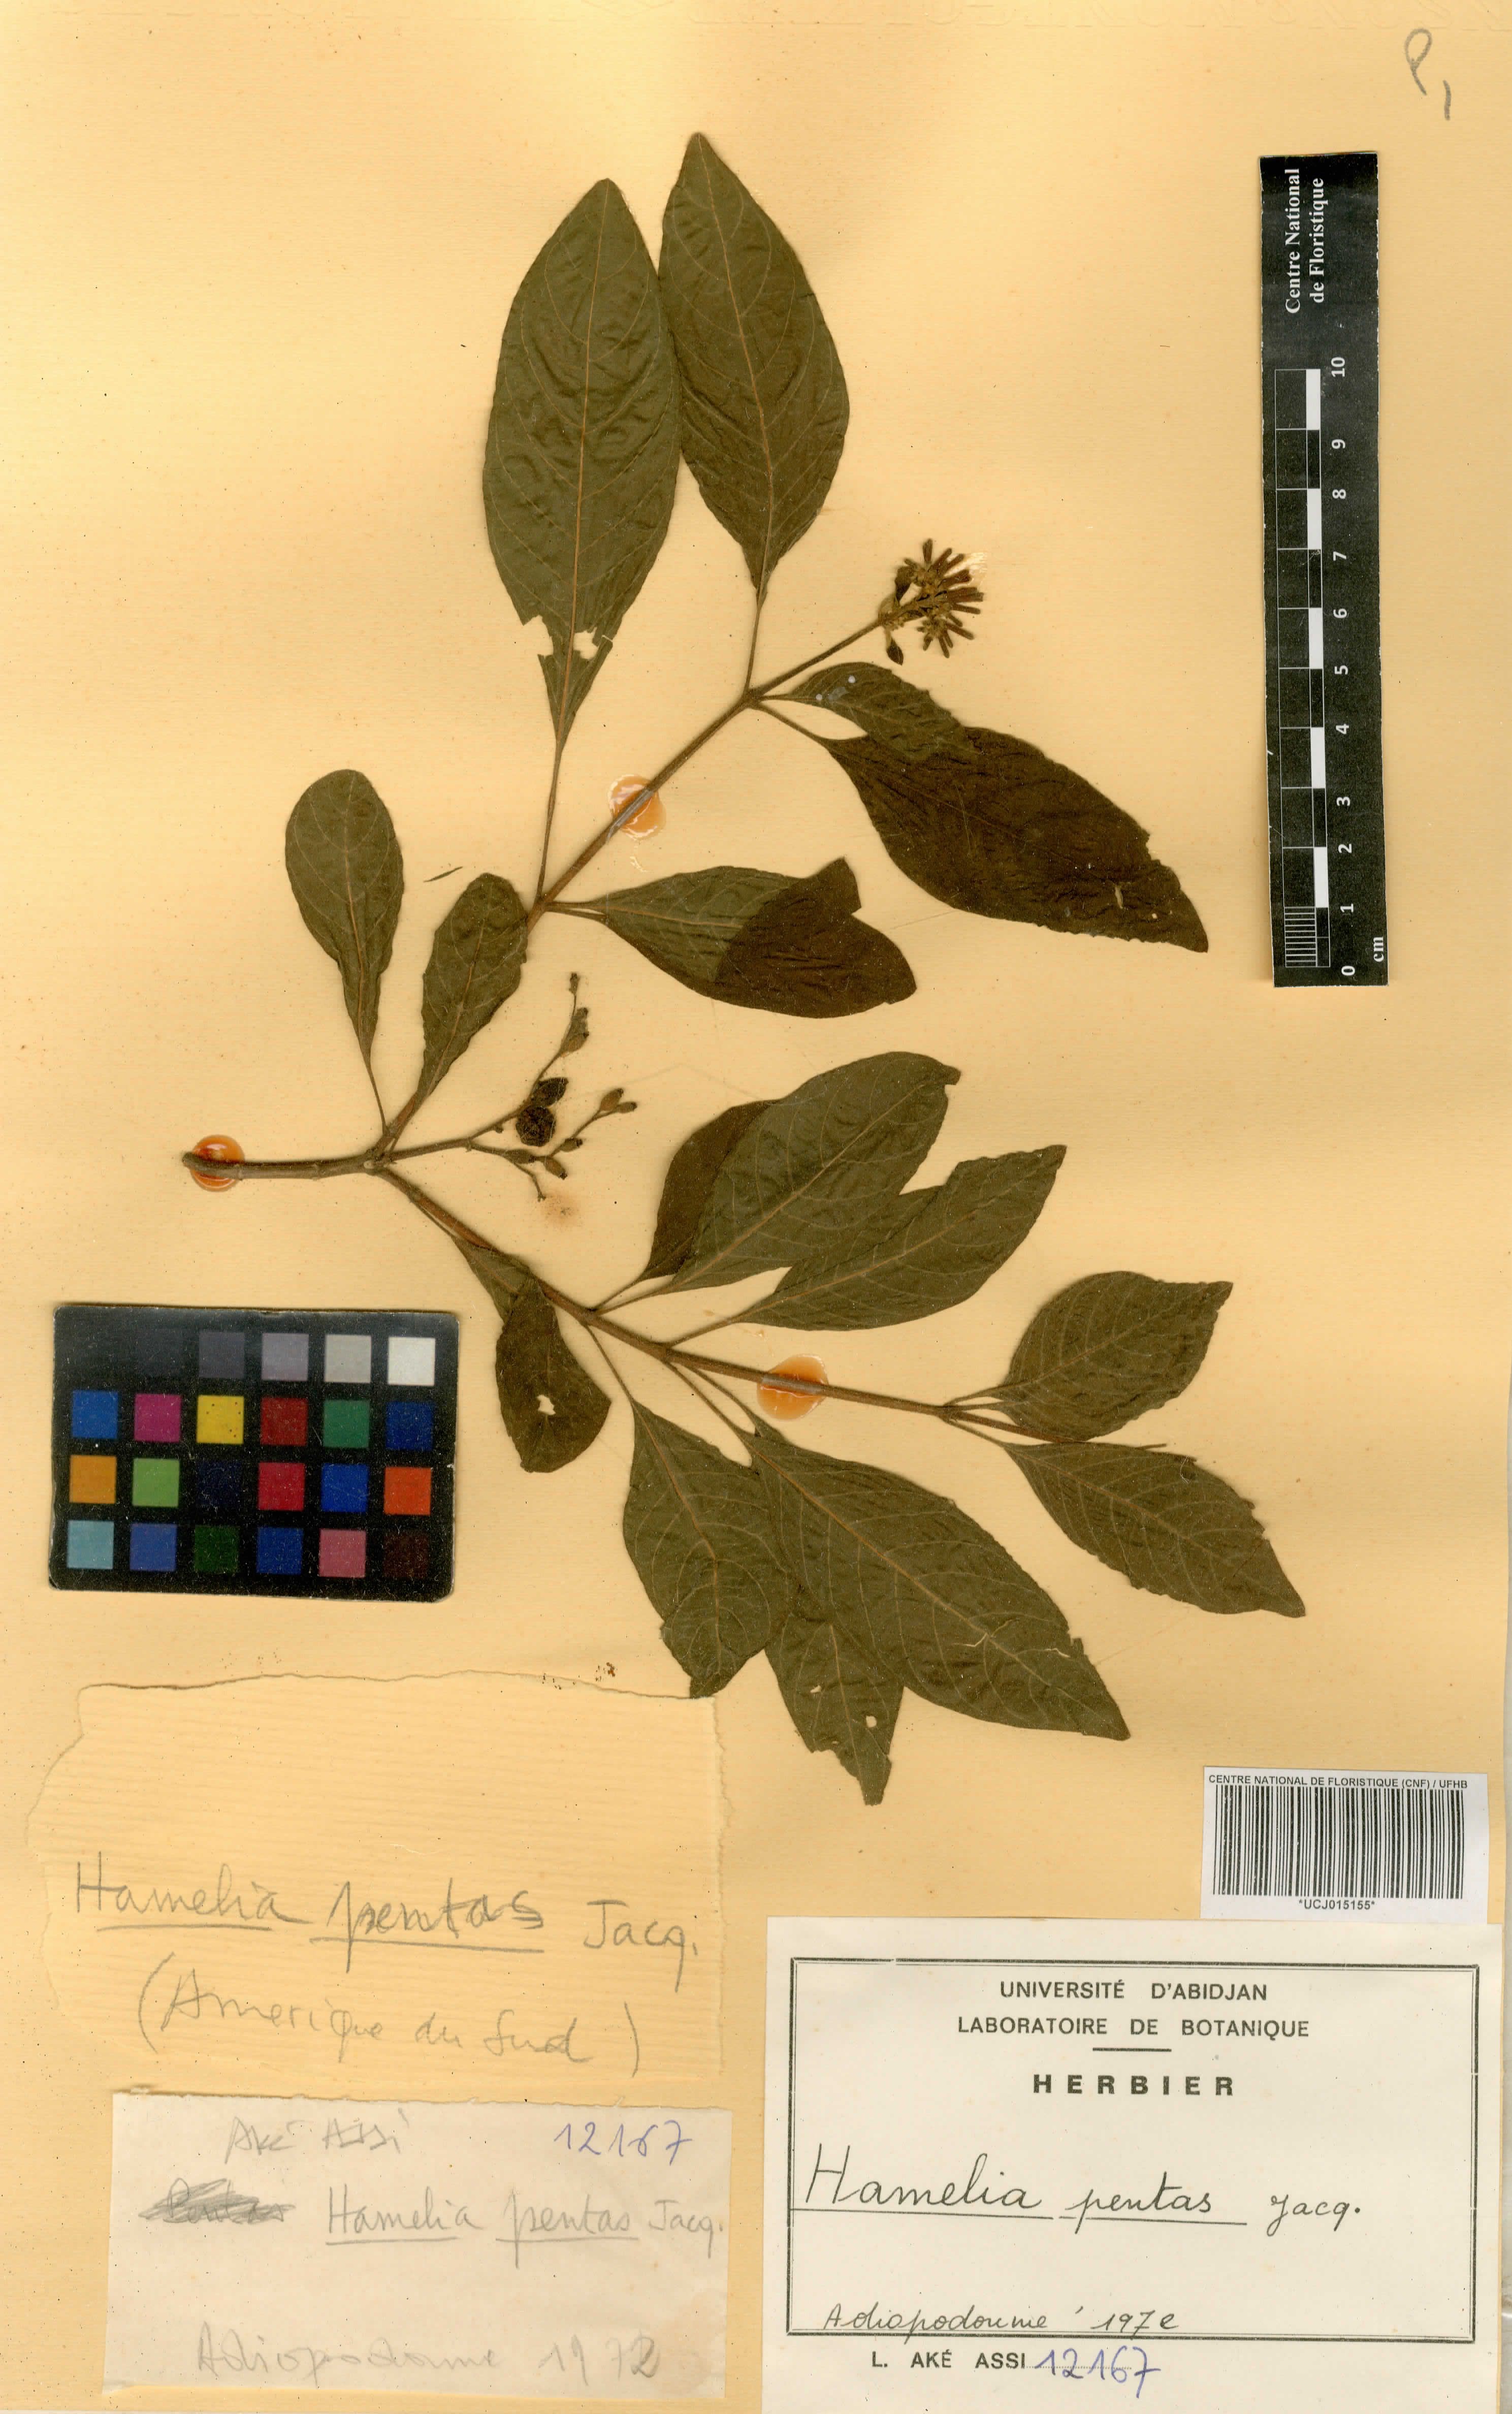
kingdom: Plantae
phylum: Tracheophyta
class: Magnoliopsida
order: Gentianales
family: Rubiaceae
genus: Hamelia
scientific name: Hamelia patens
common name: Redhead
